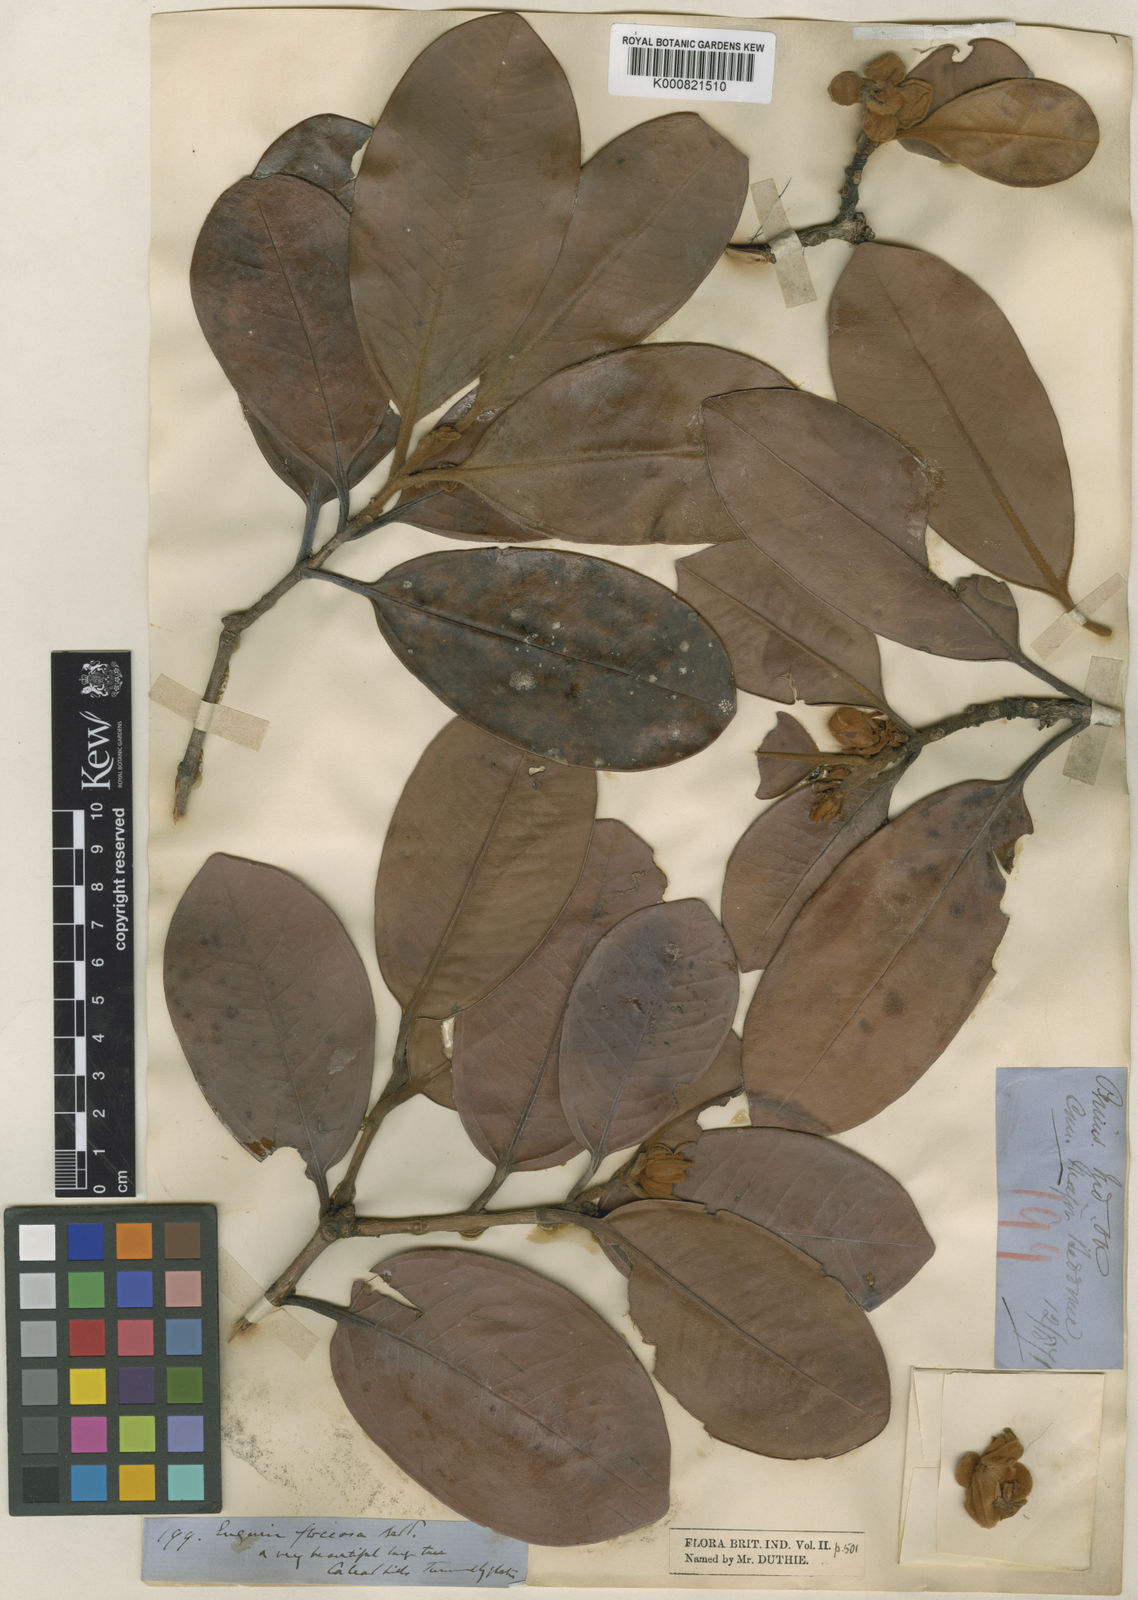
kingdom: Plantae
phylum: Tracheophyta
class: Magnoliopsida
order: Myrtales
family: Myrtaceae
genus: Eugenia
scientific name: Eugenia floccosa
